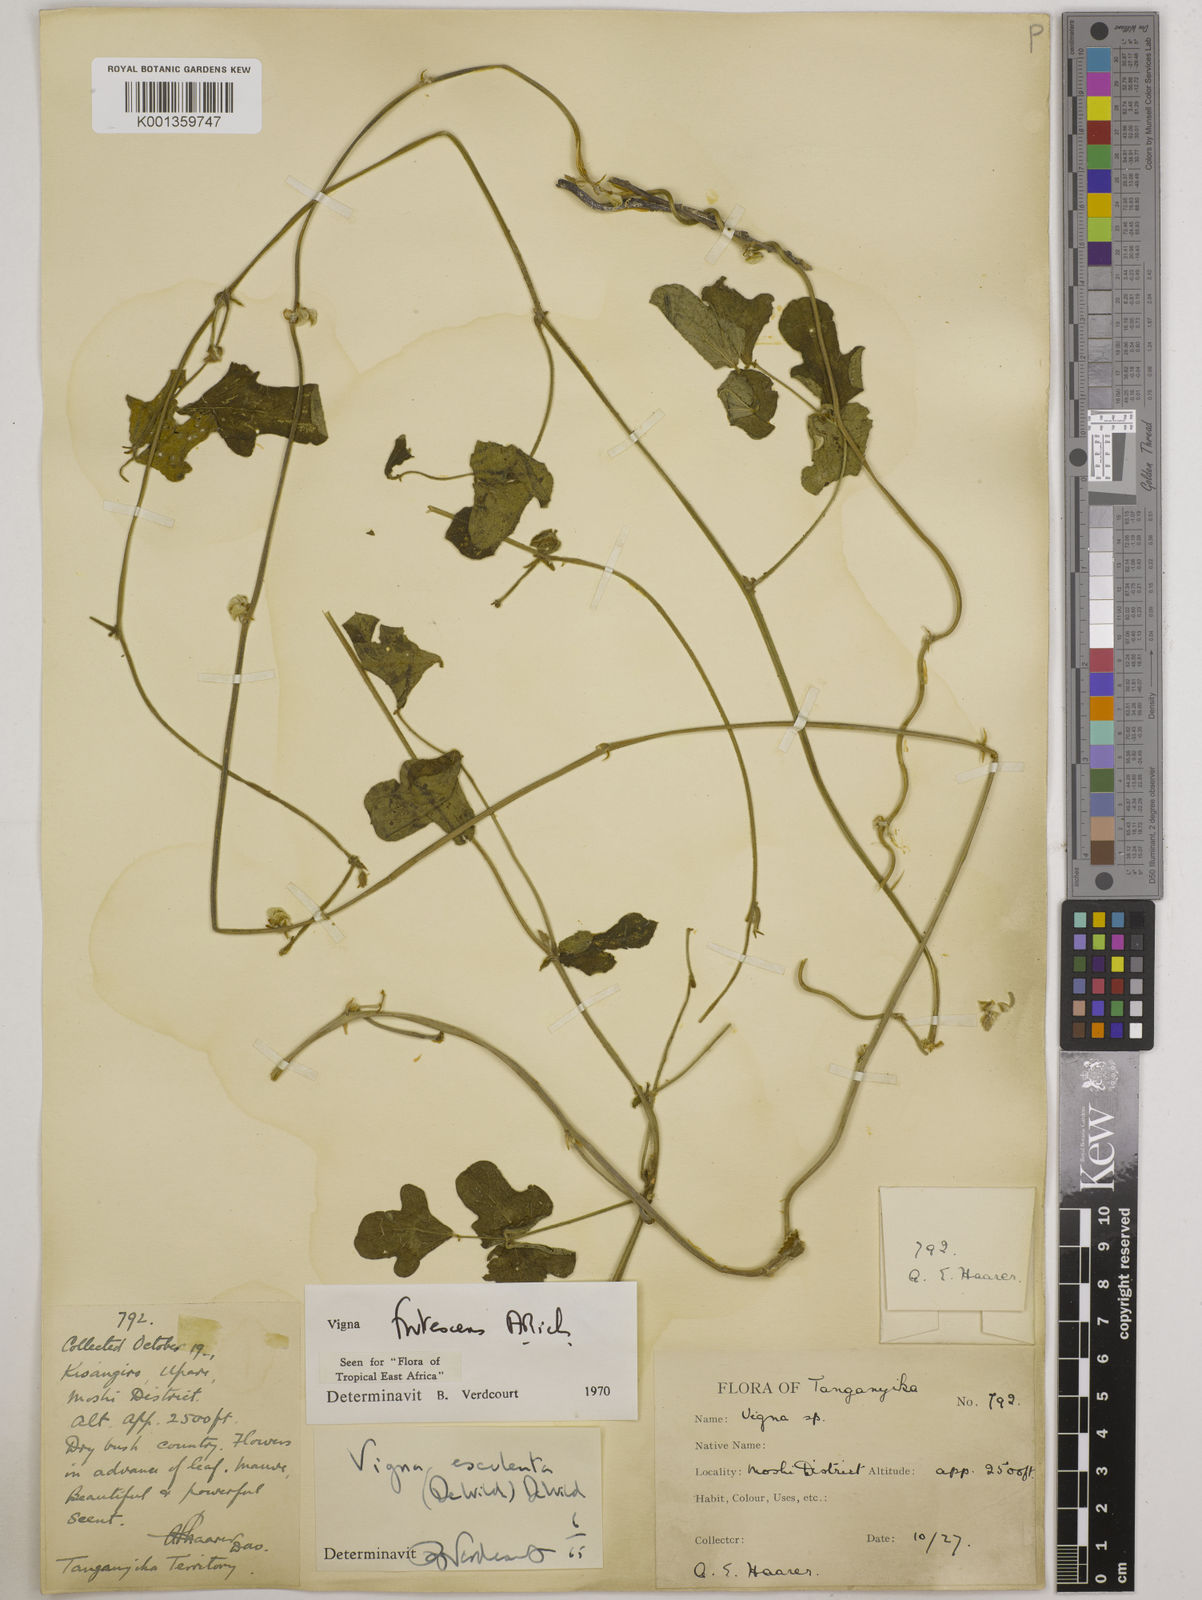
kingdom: Plantae
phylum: Tracheophyta
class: Magnoliopsida
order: Fabales
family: Fabaceae
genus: Vigna
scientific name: Vigna frutescens
